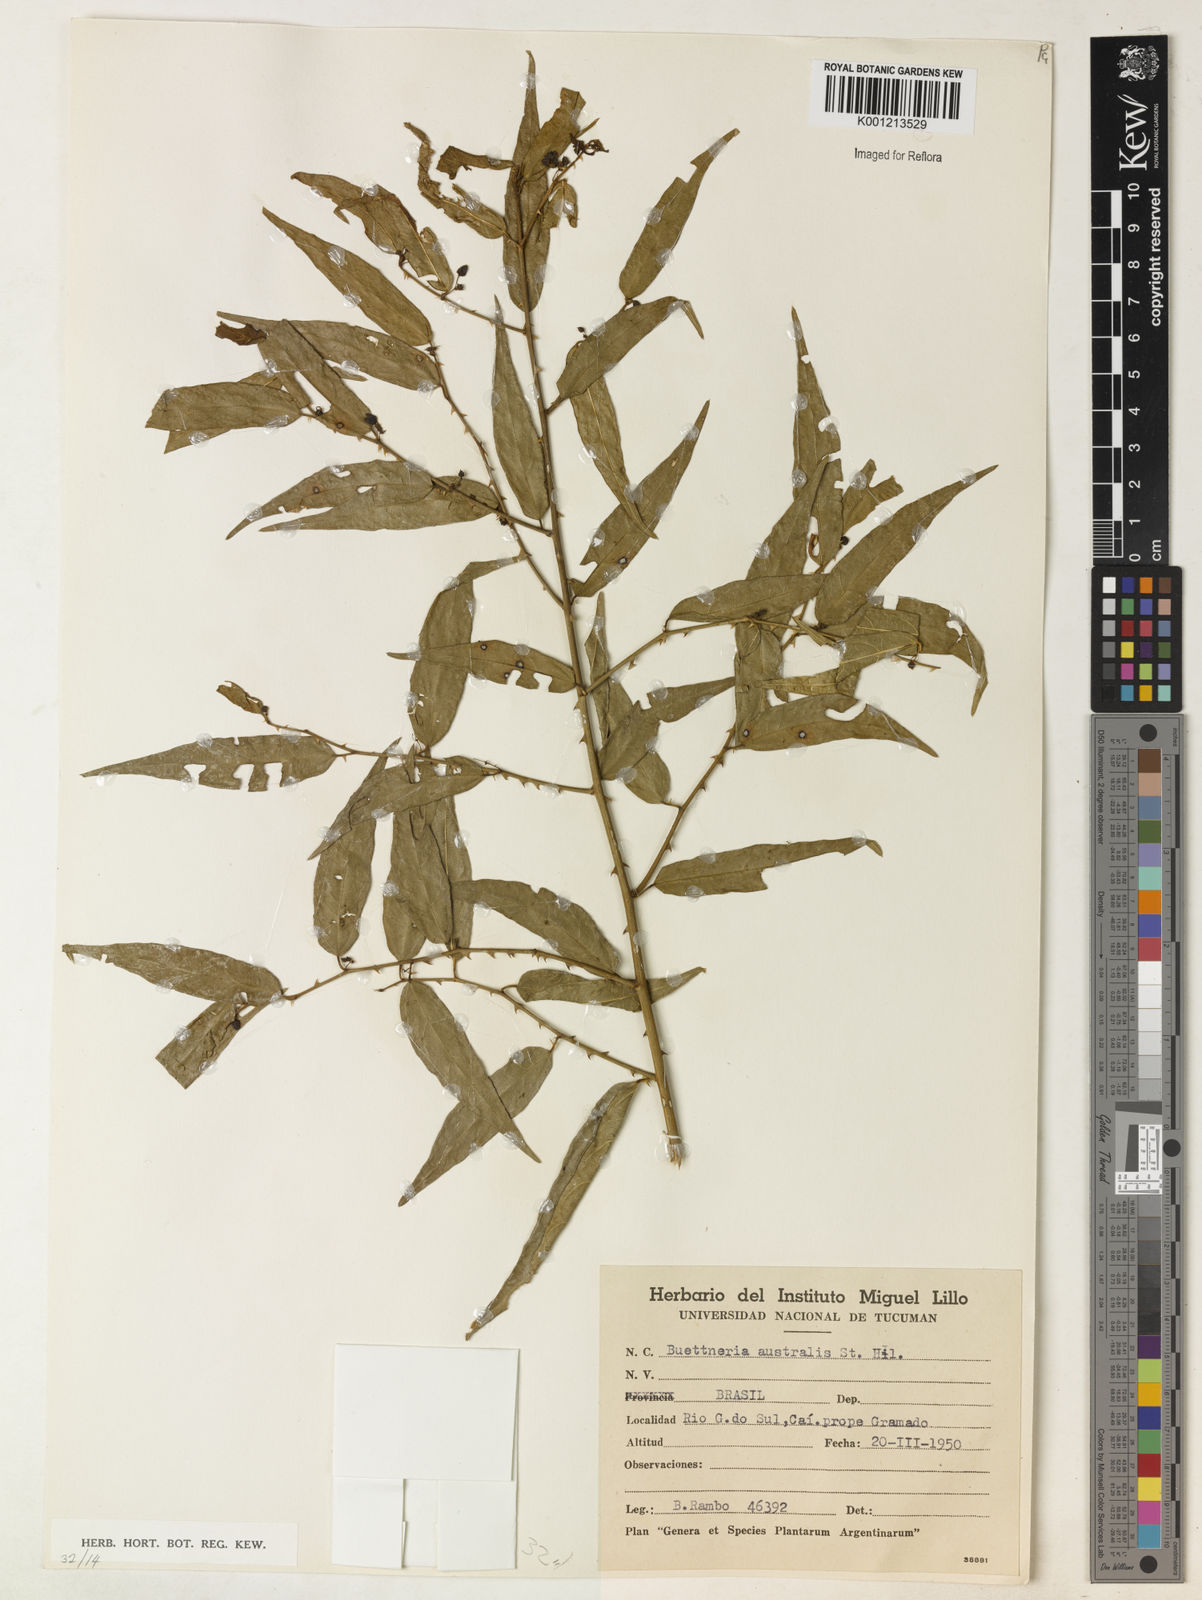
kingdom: Plantae
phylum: Tracheophyta
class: Magnoliopsida
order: Malvales
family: Malvaceae
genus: Byttneria
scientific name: Byttneria australis
